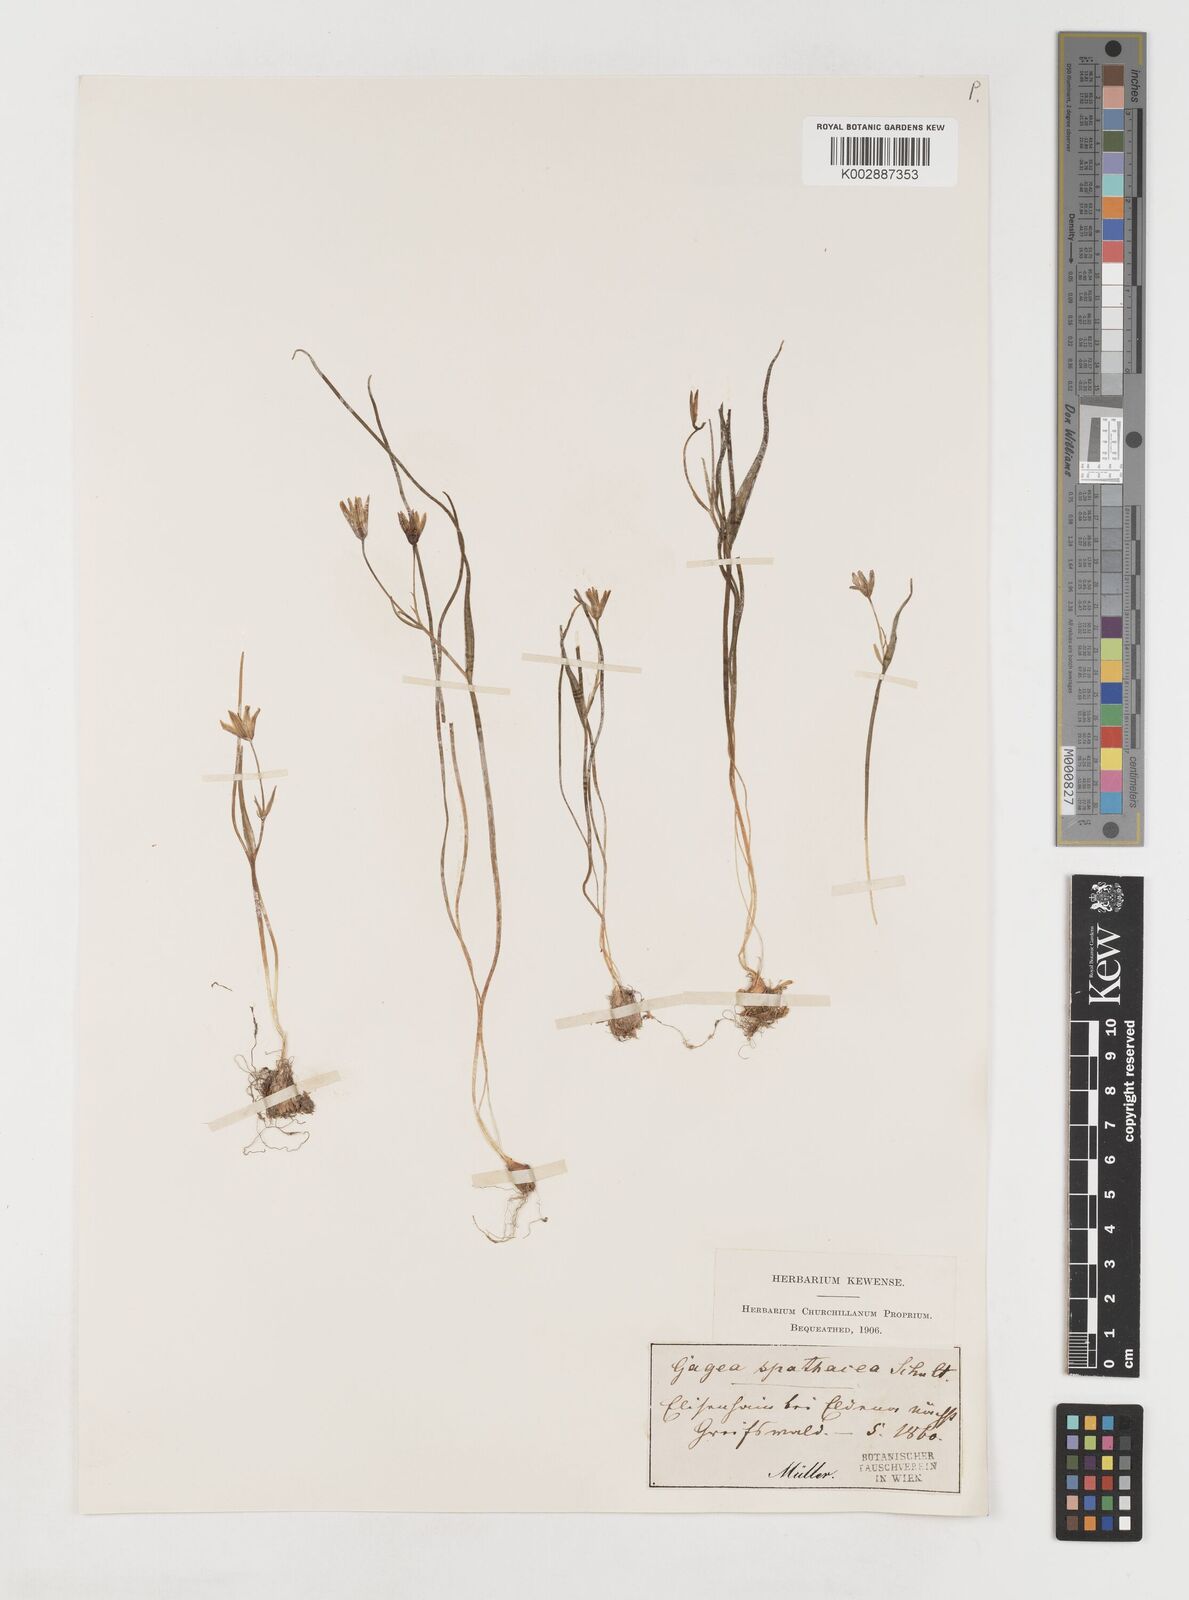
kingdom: Plantae
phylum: Tracheophyta
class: Liliopsida
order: Liliales
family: Liliaceae
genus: Gagea
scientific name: Gagea spathacea
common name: Belgian gagea
